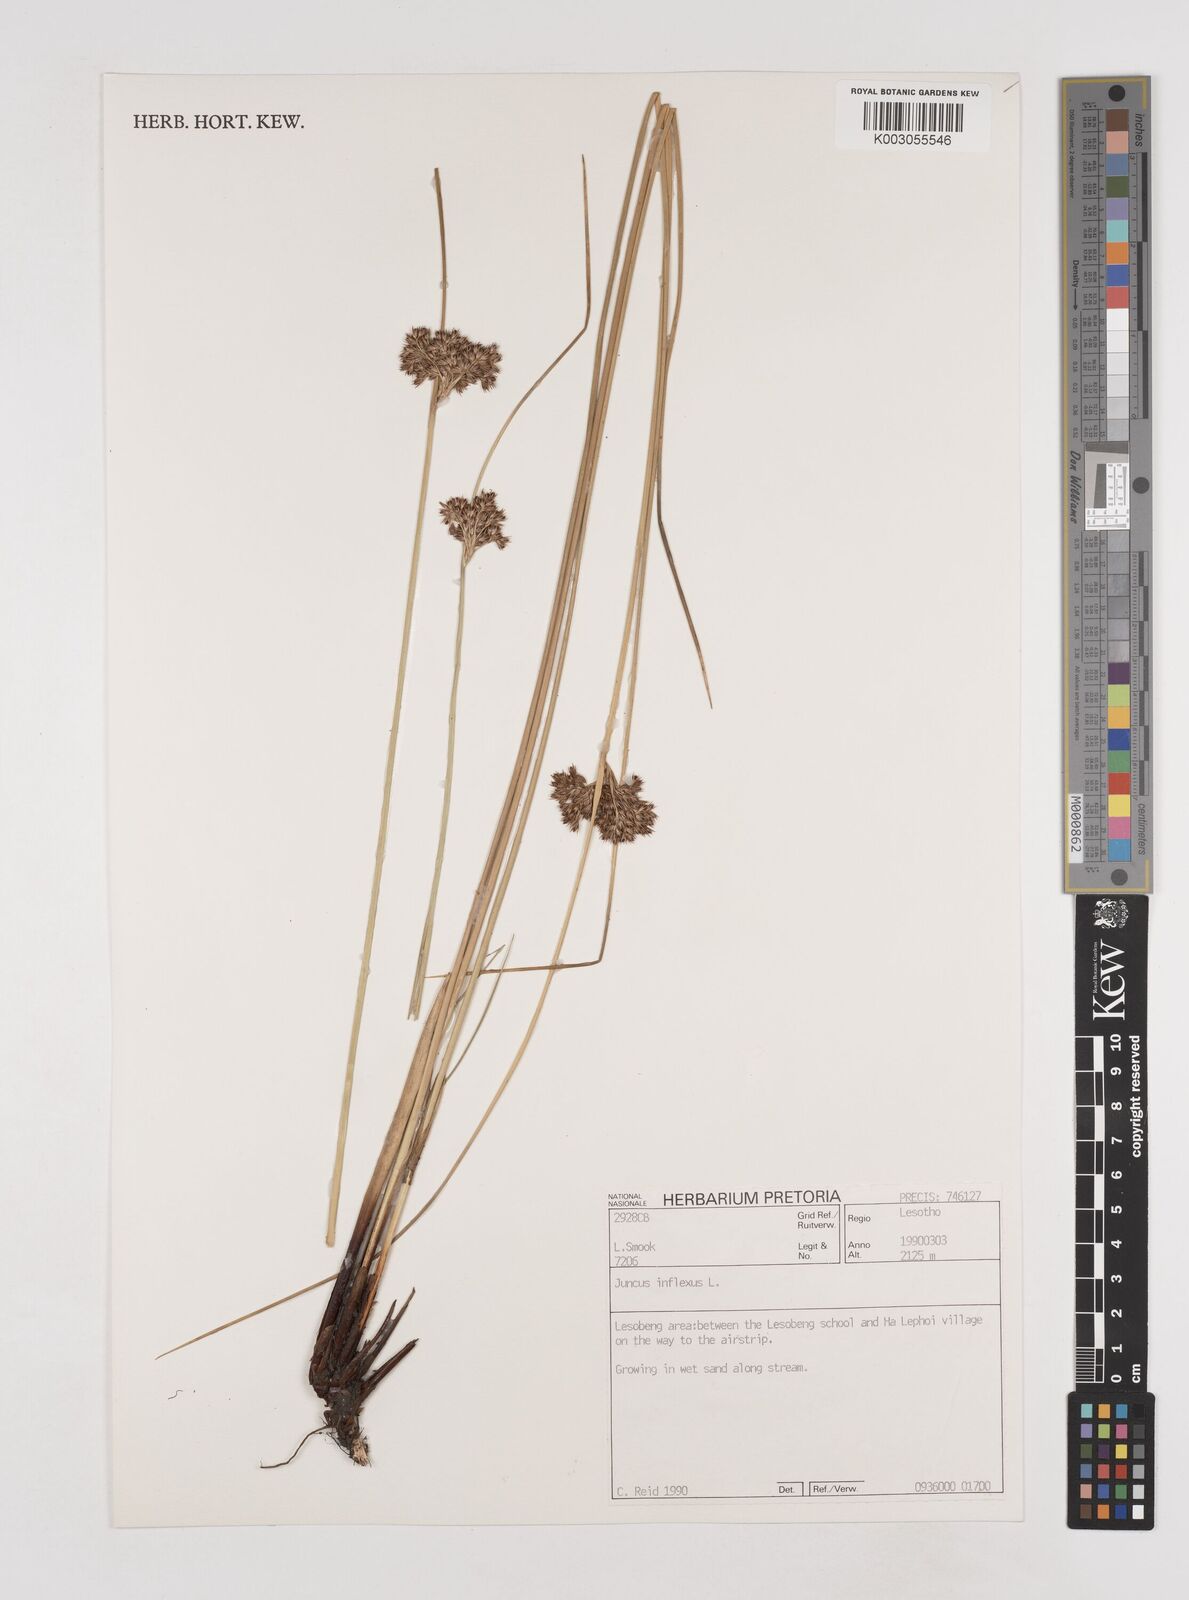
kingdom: Plantae
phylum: Tracheophyta
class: Liliopsida
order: Poales
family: Juncaceae
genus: Juncus
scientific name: Juncus inflexus
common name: Hard rush
